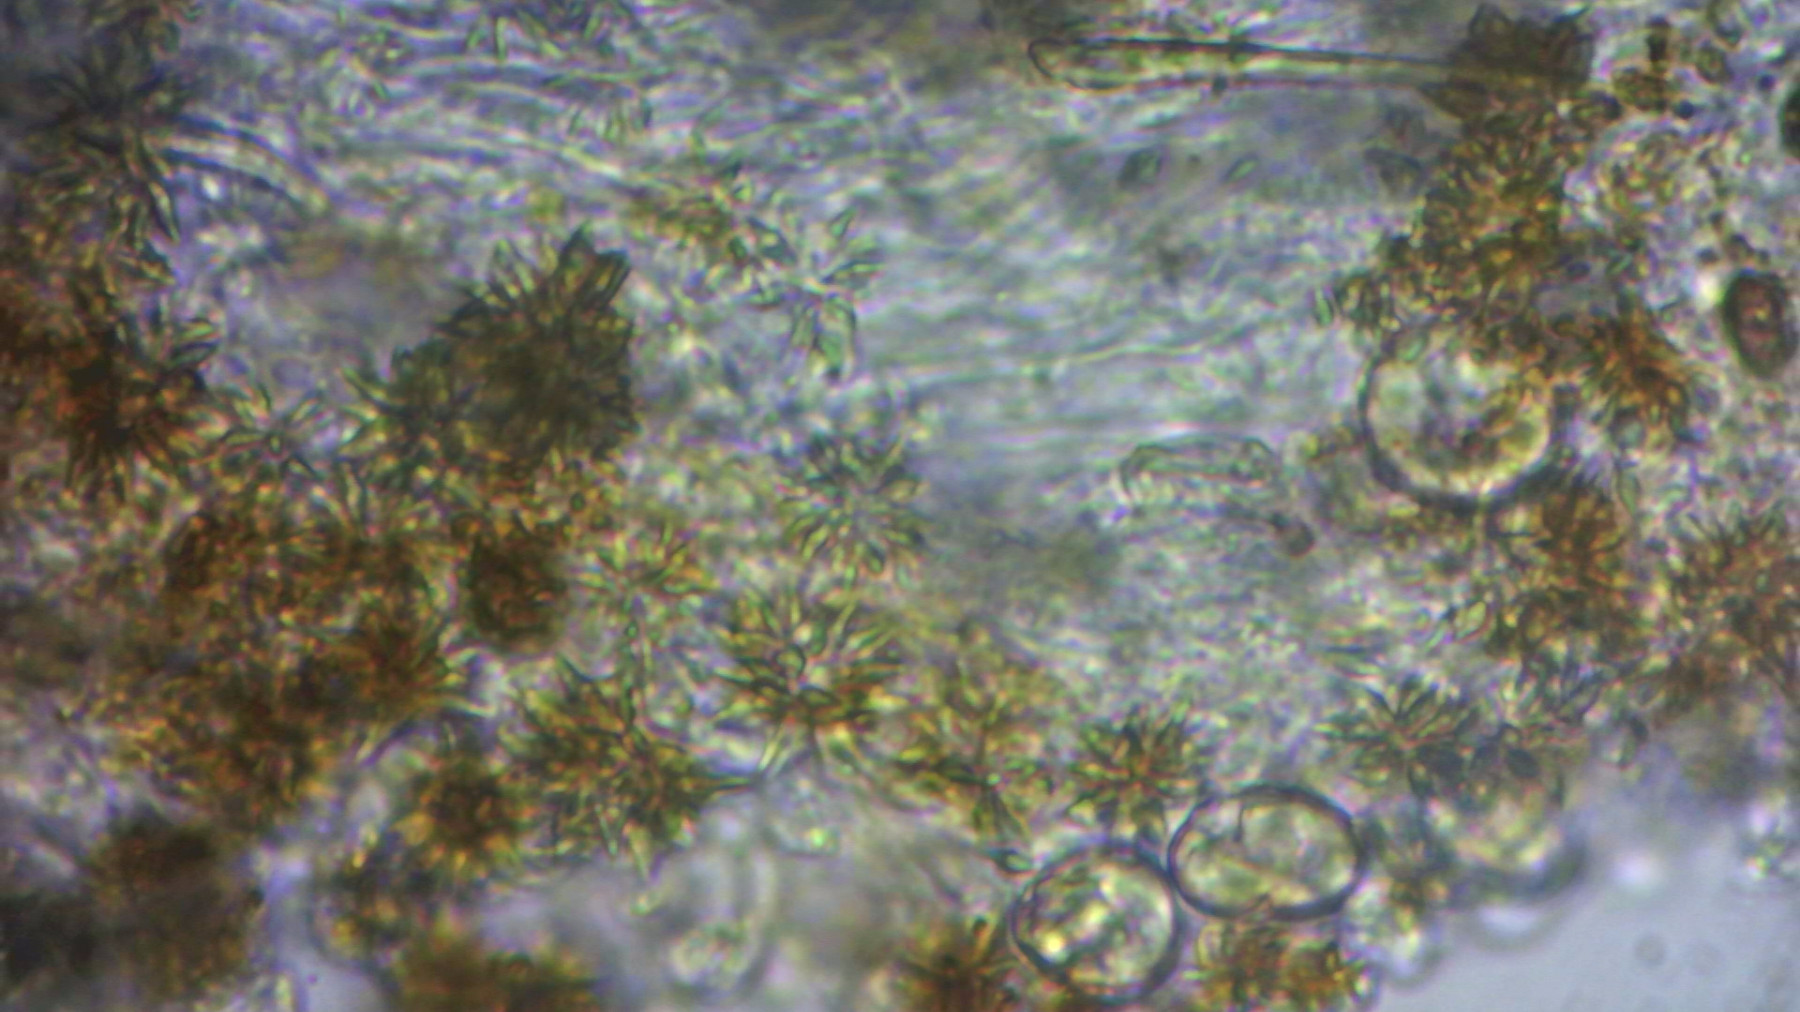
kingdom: Fungi
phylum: Basidiomycota
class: Agaricomycetes
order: Hymenochaetales
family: Rickenellaceae
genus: Resinicium
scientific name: Resinicium bicolor
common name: almindelig vokstand
